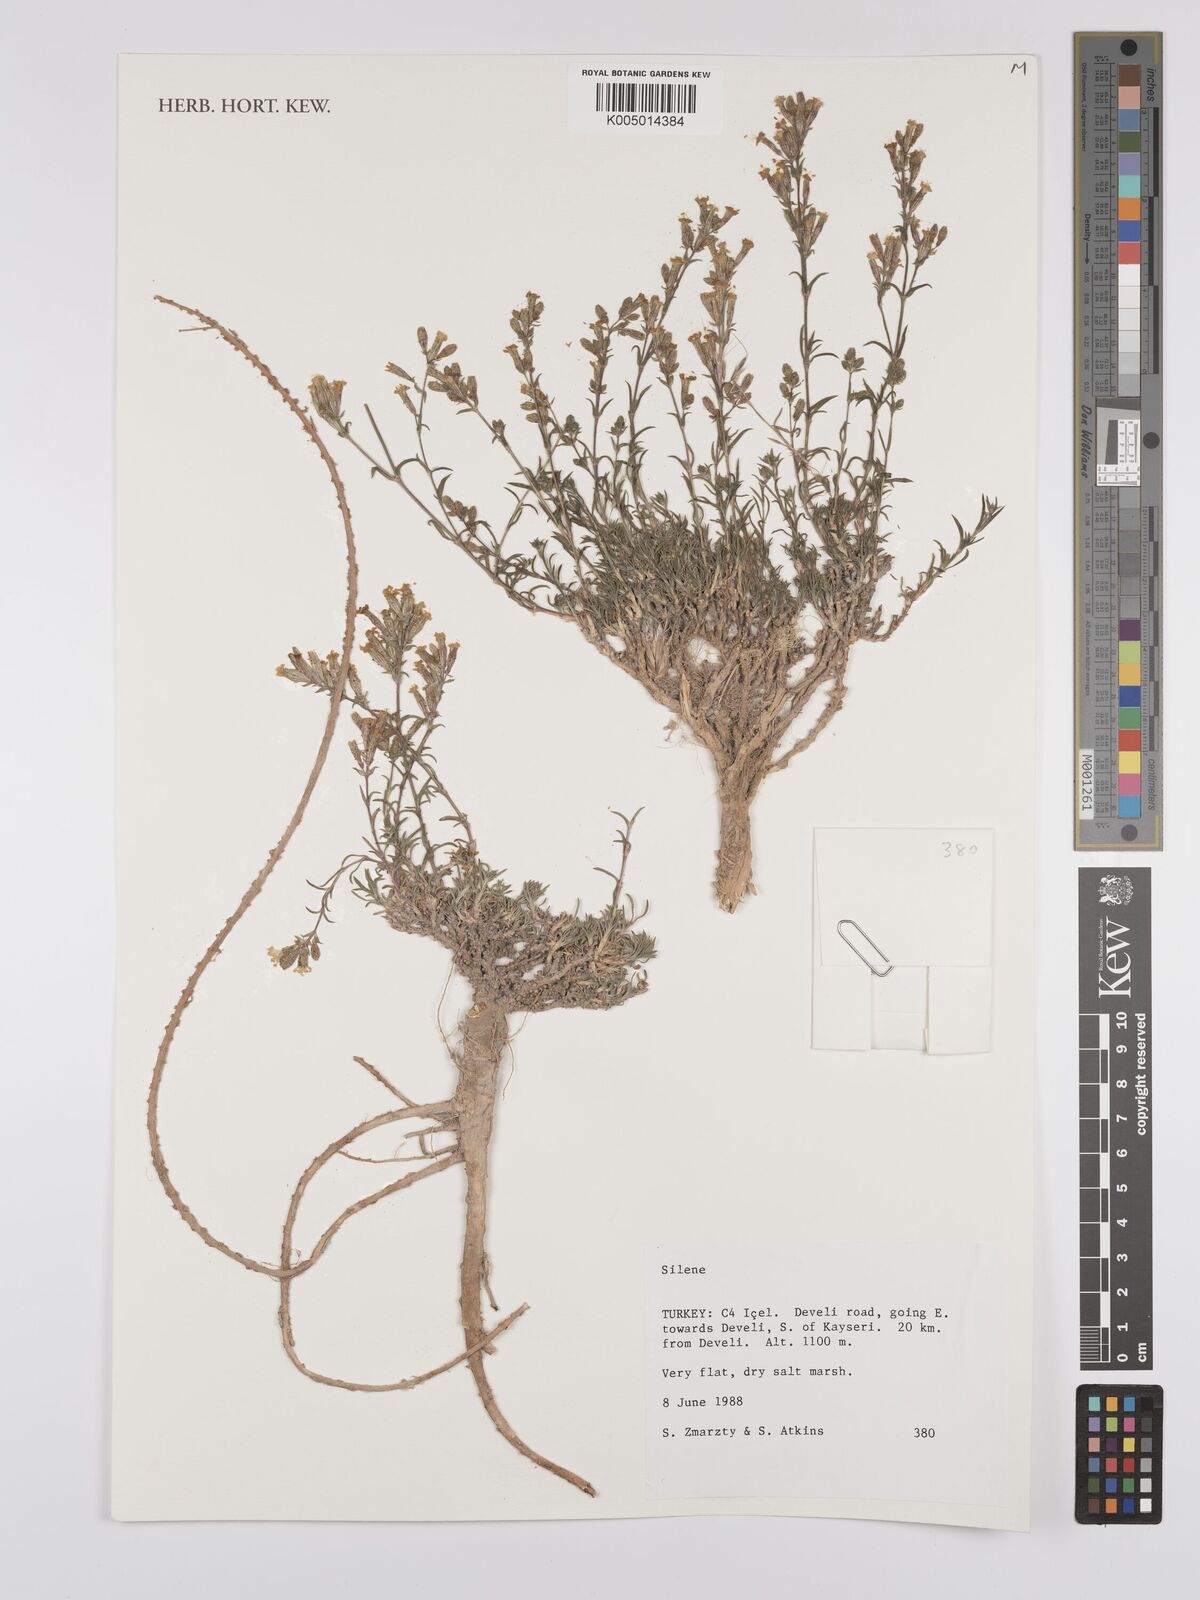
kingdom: Plantae
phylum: Tracheophyta
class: Magnoliopsida
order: Caryophyllales
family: Caryophyllaceae
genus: Silene
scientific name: Silene
